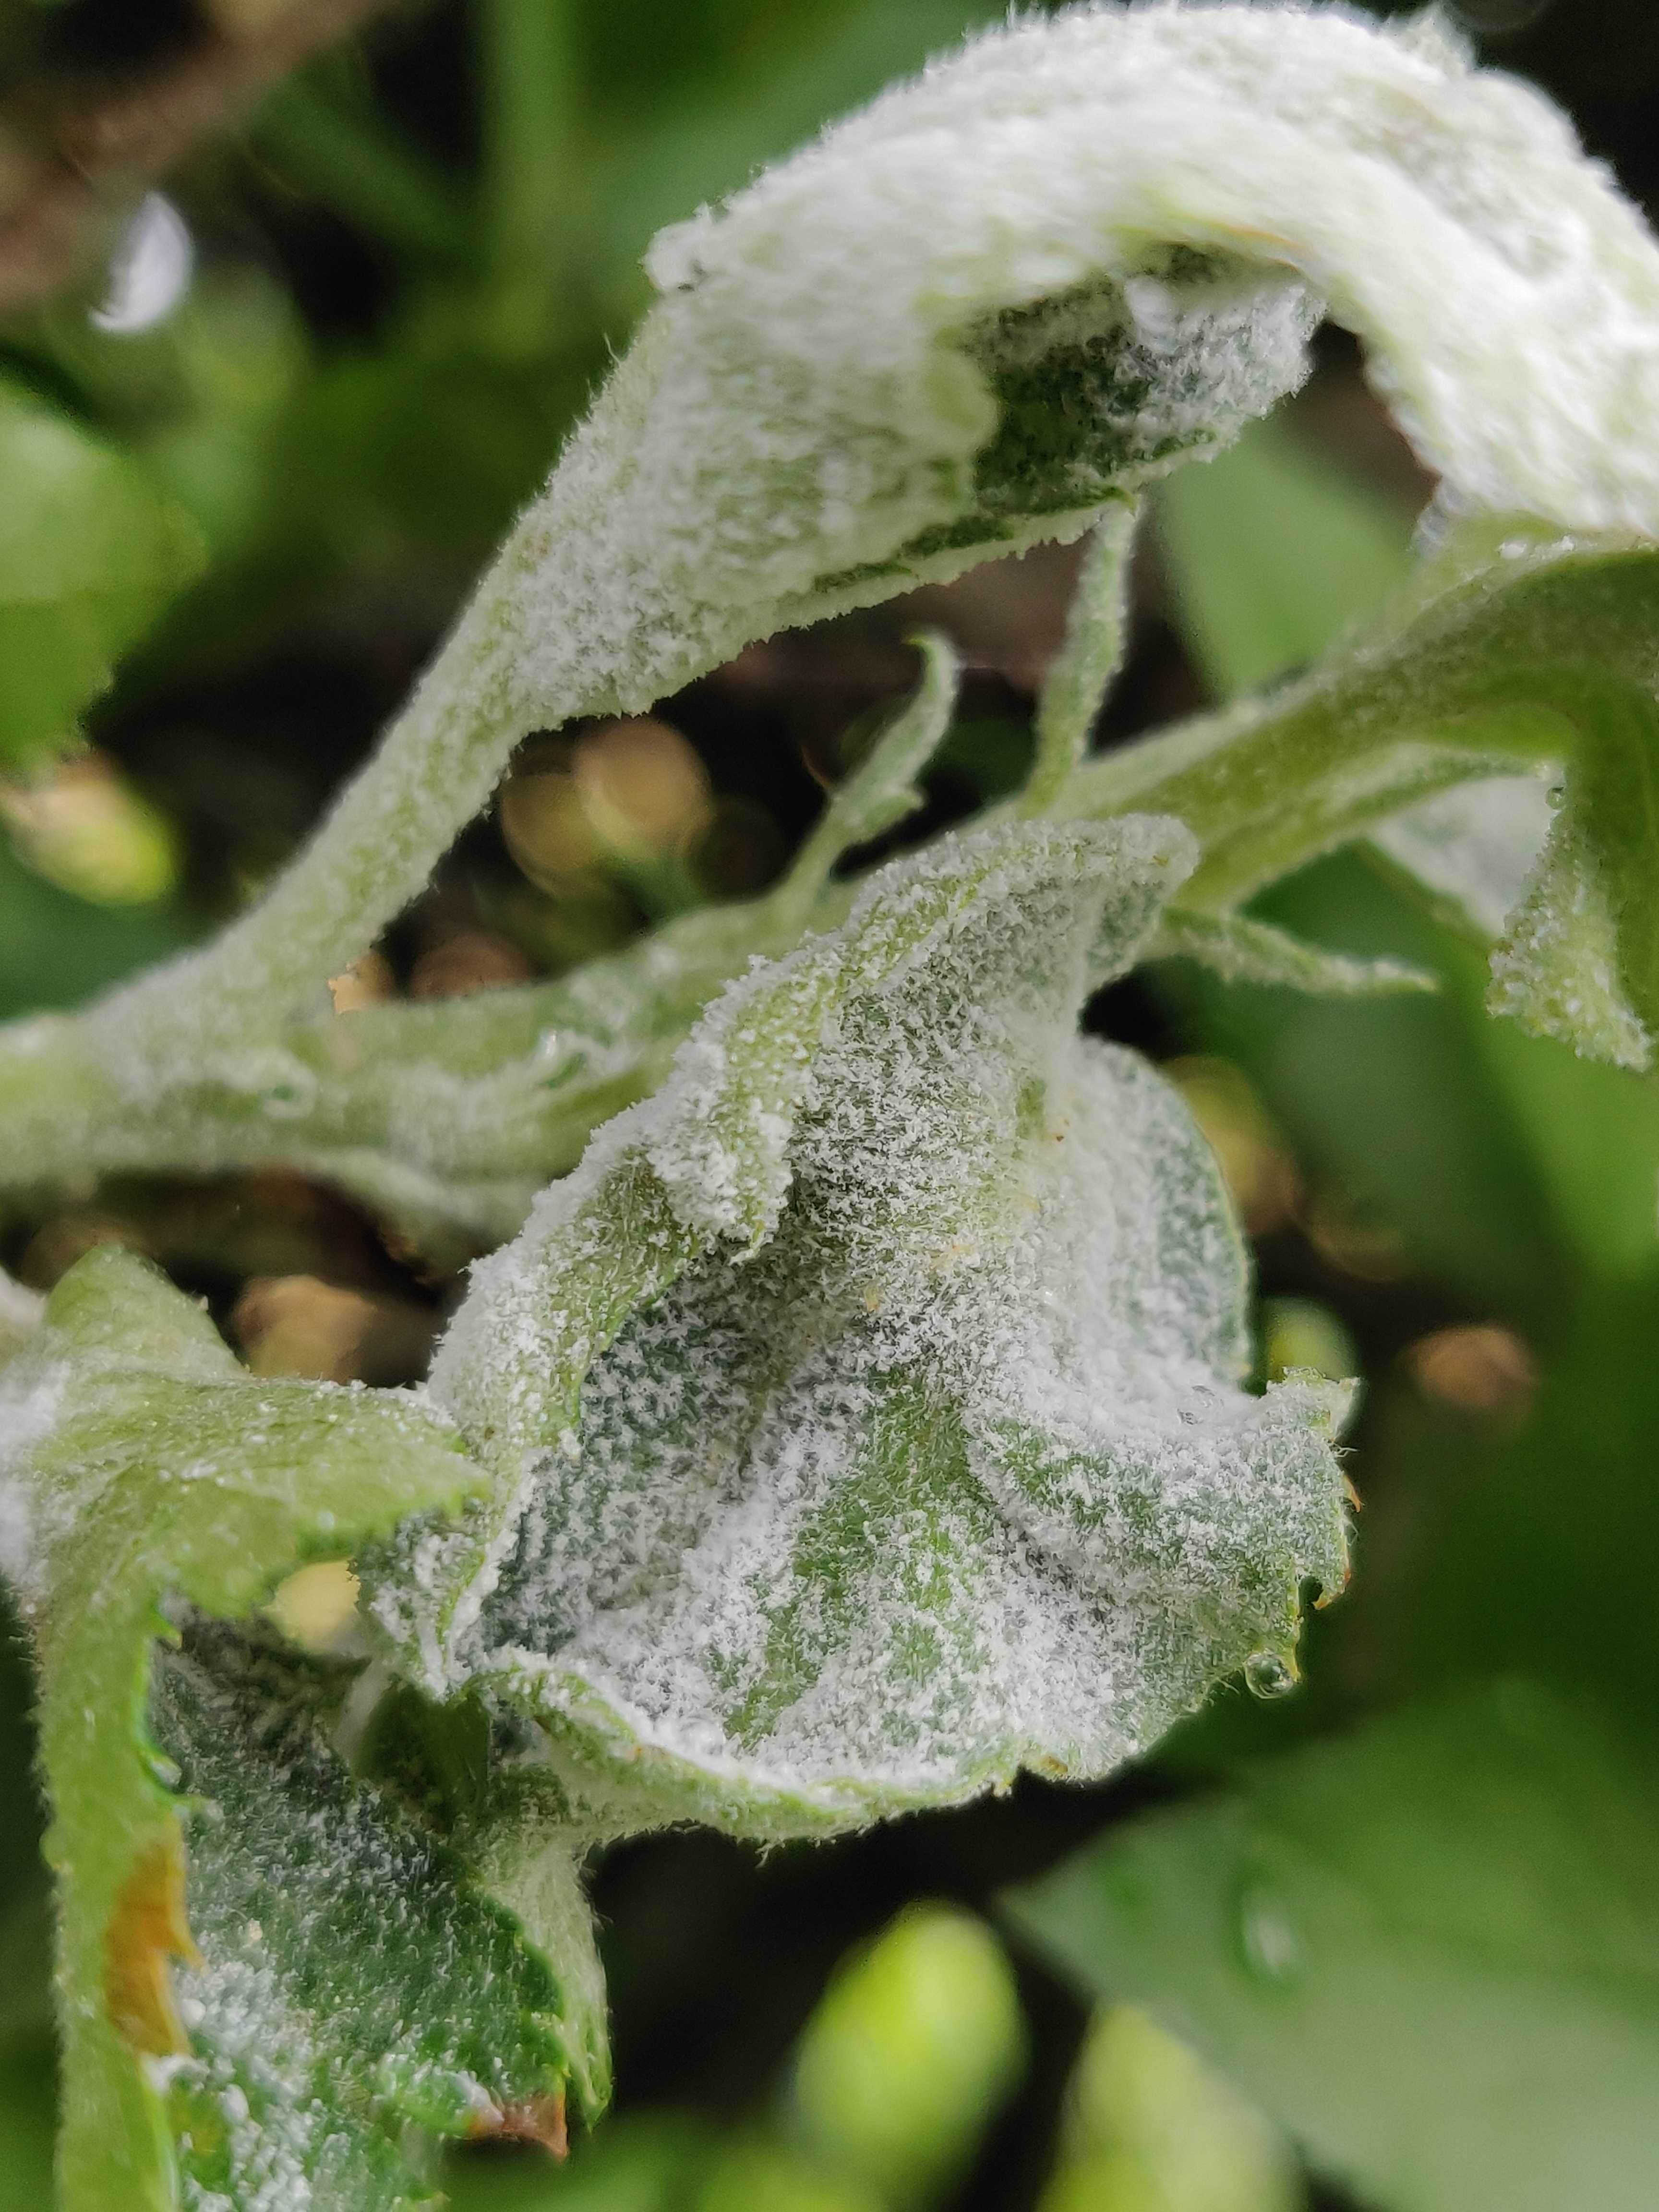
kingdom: Fungi
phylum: Ascomycota
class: Leotiomycetes
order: Helotiales
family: Erysiphaceae
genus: Podosphaera
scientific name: Podosphaera leucotricha
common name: æble-meldug
